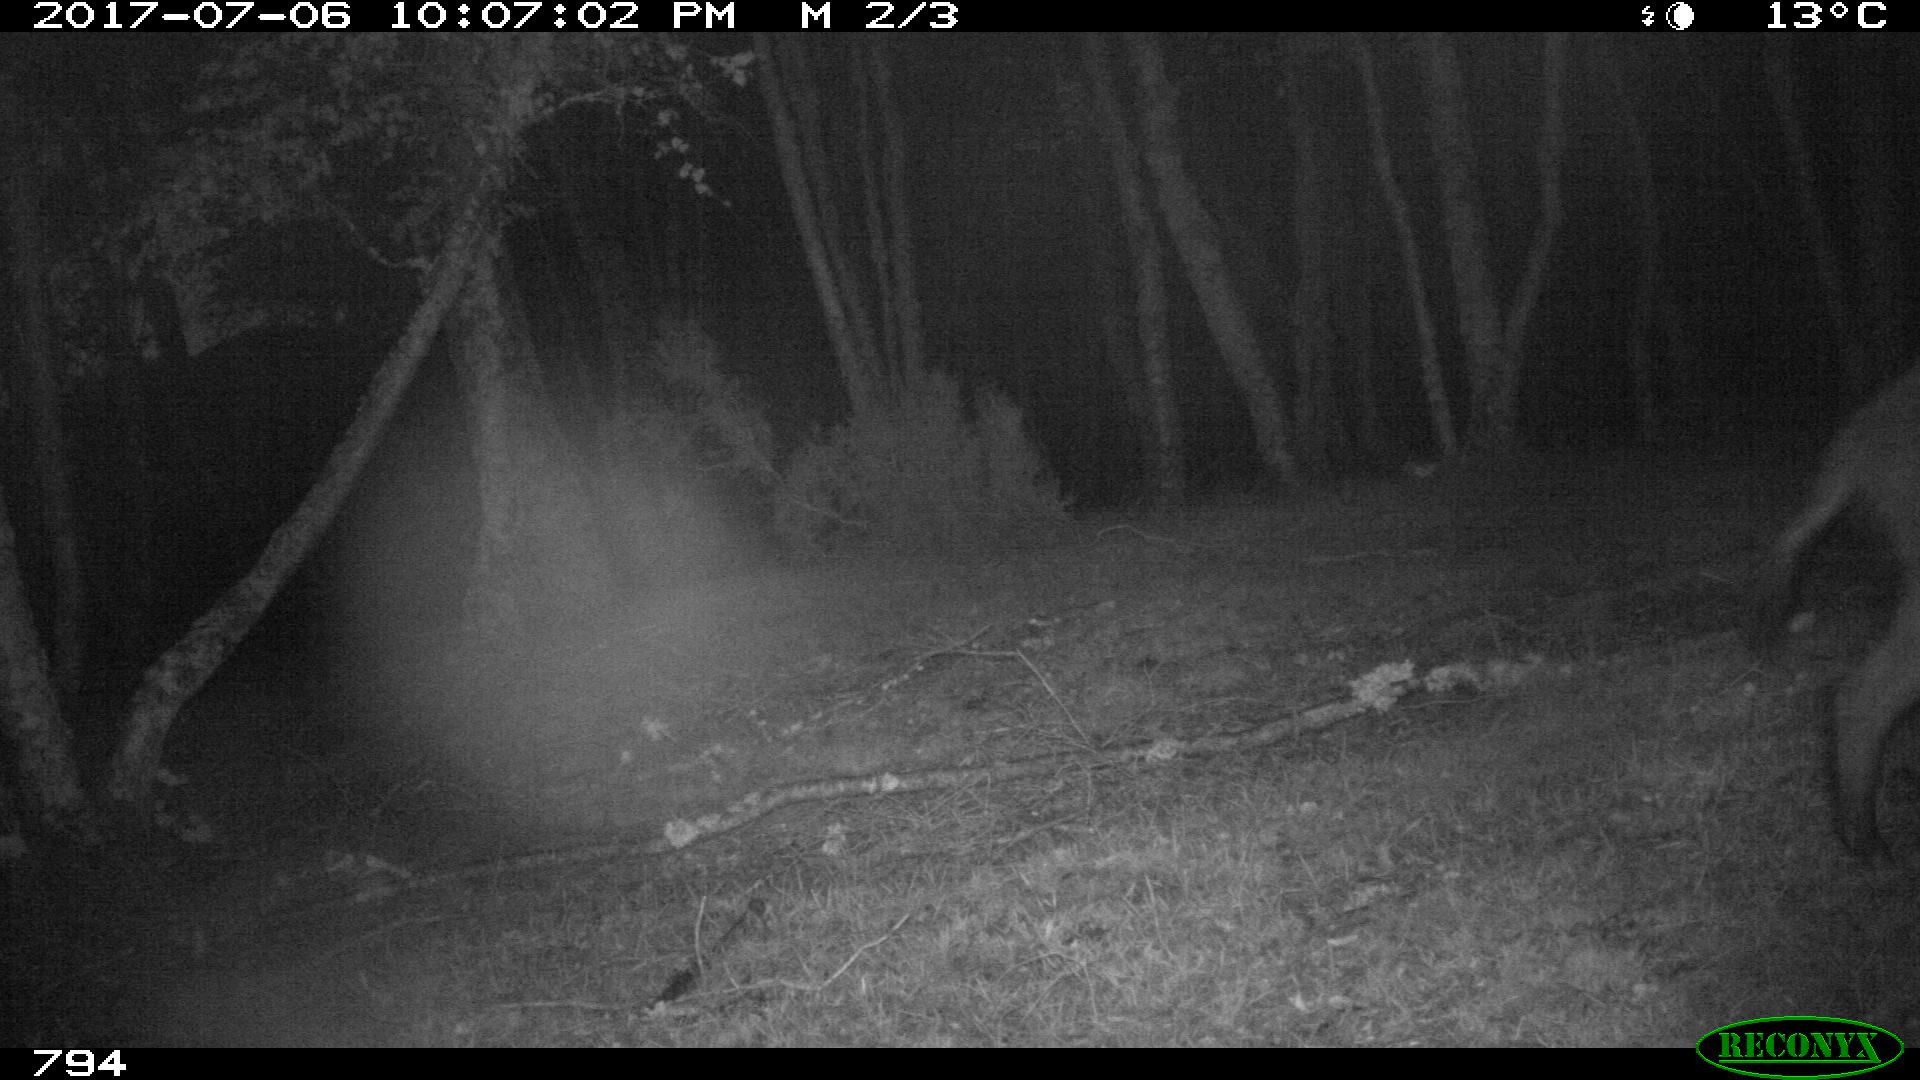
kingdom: Animalia
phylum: Chordata
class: Mammalia
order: Artiodactyla
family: Suidae
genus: Sus
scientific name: Sus scrofa
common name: Wild boar
